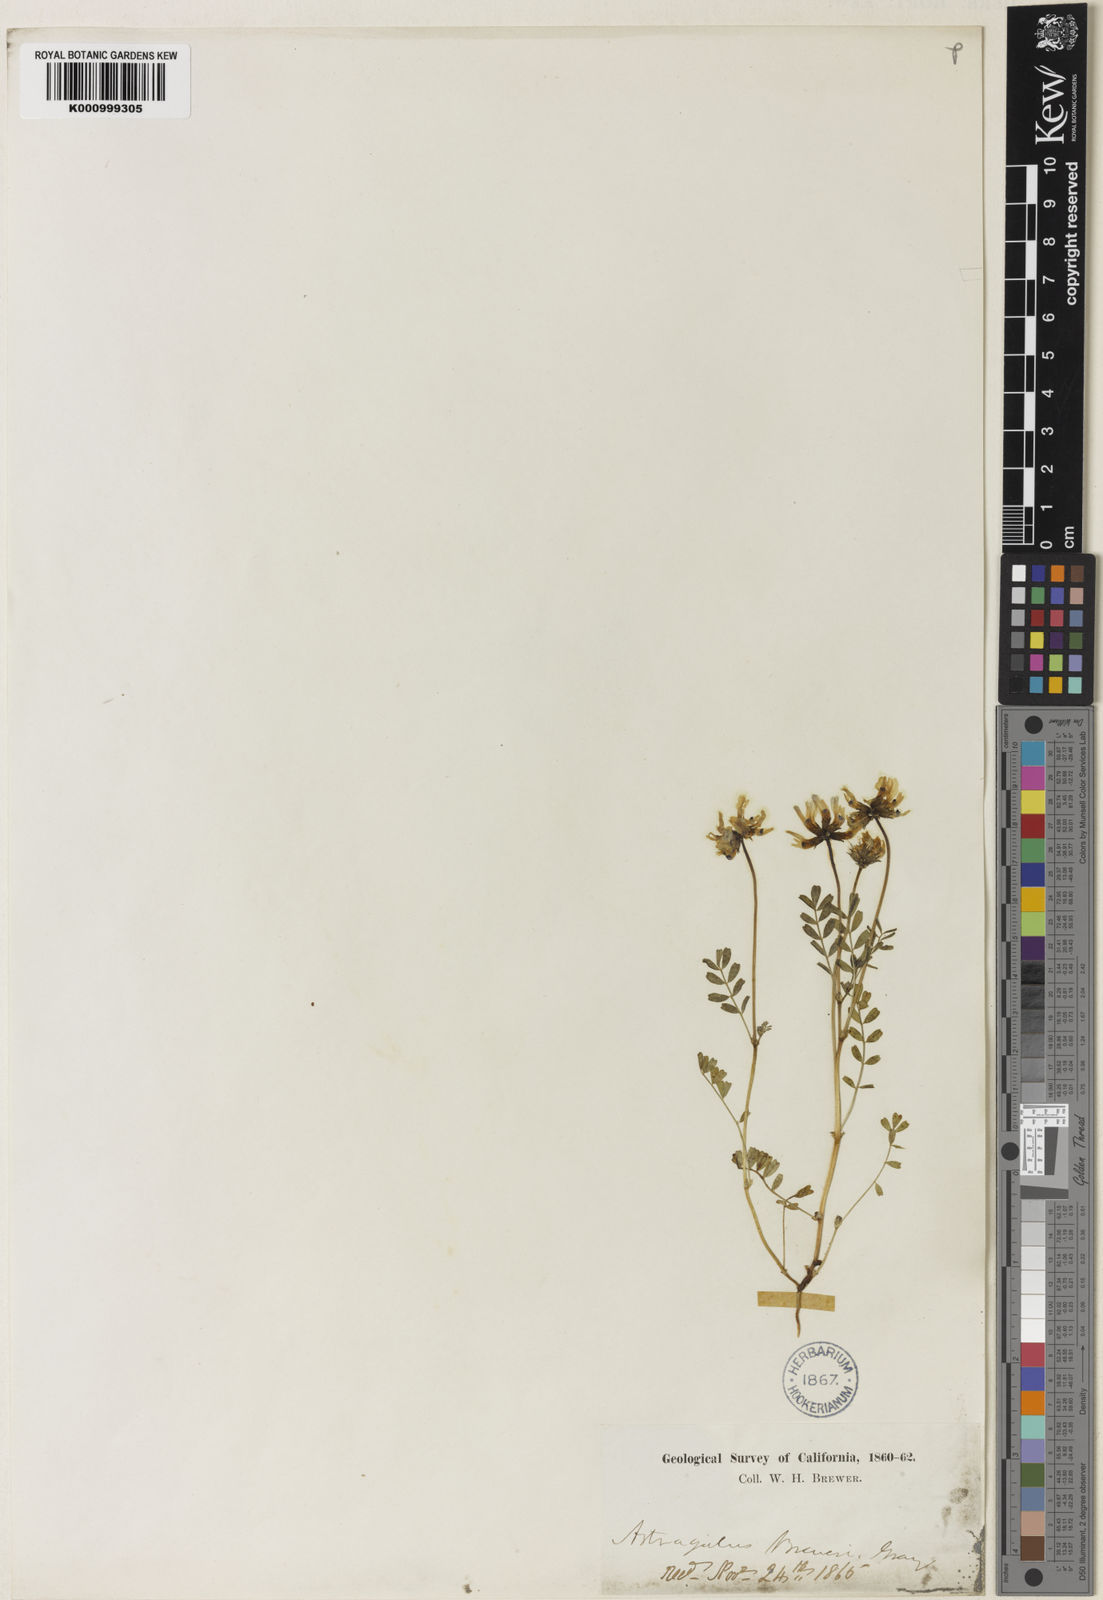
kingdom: Plantae
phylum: Tracheophyta
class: Magnoliopsida
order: Fabales
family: Fabaceae
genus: Astragalus
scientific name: Astragalus breweri
